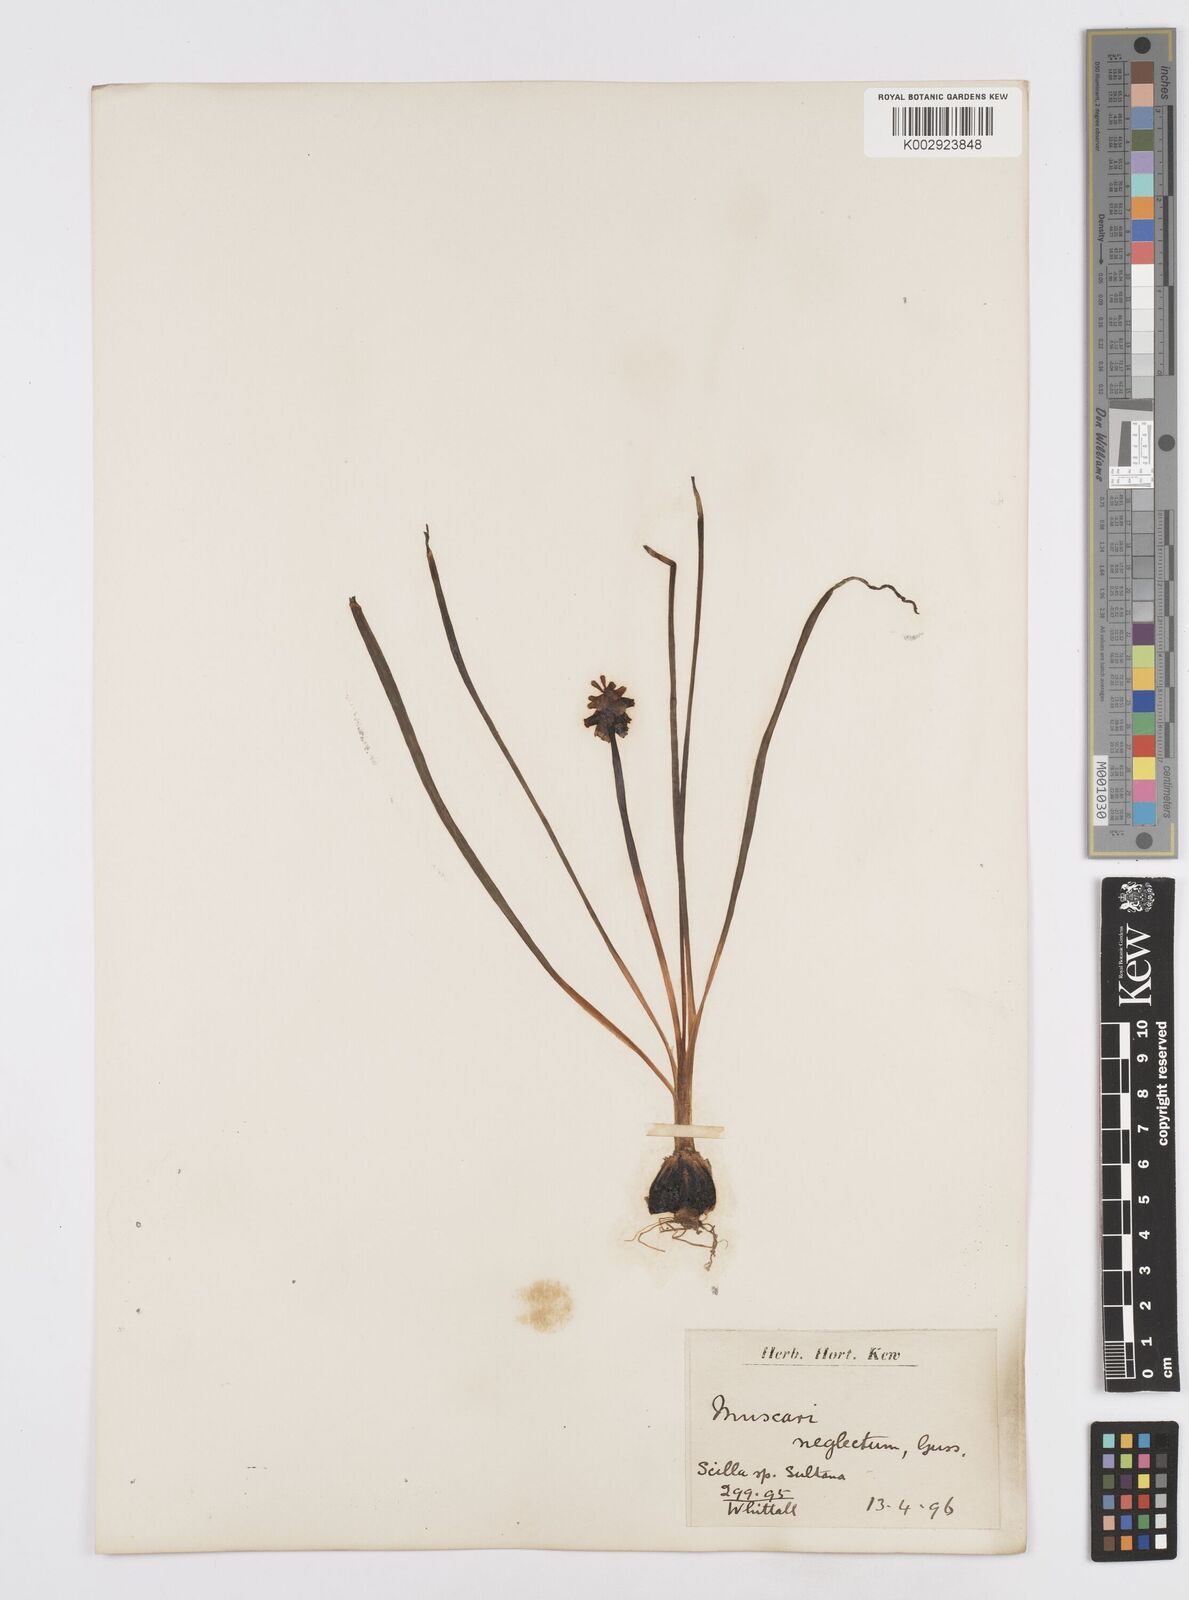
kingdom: Plantae
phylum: Tracheophyta
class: Liliopsida
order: Asparagales
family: Asparagaceae
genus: Muscari
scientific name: Muscari neglectum
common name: Grape-hyacinth
